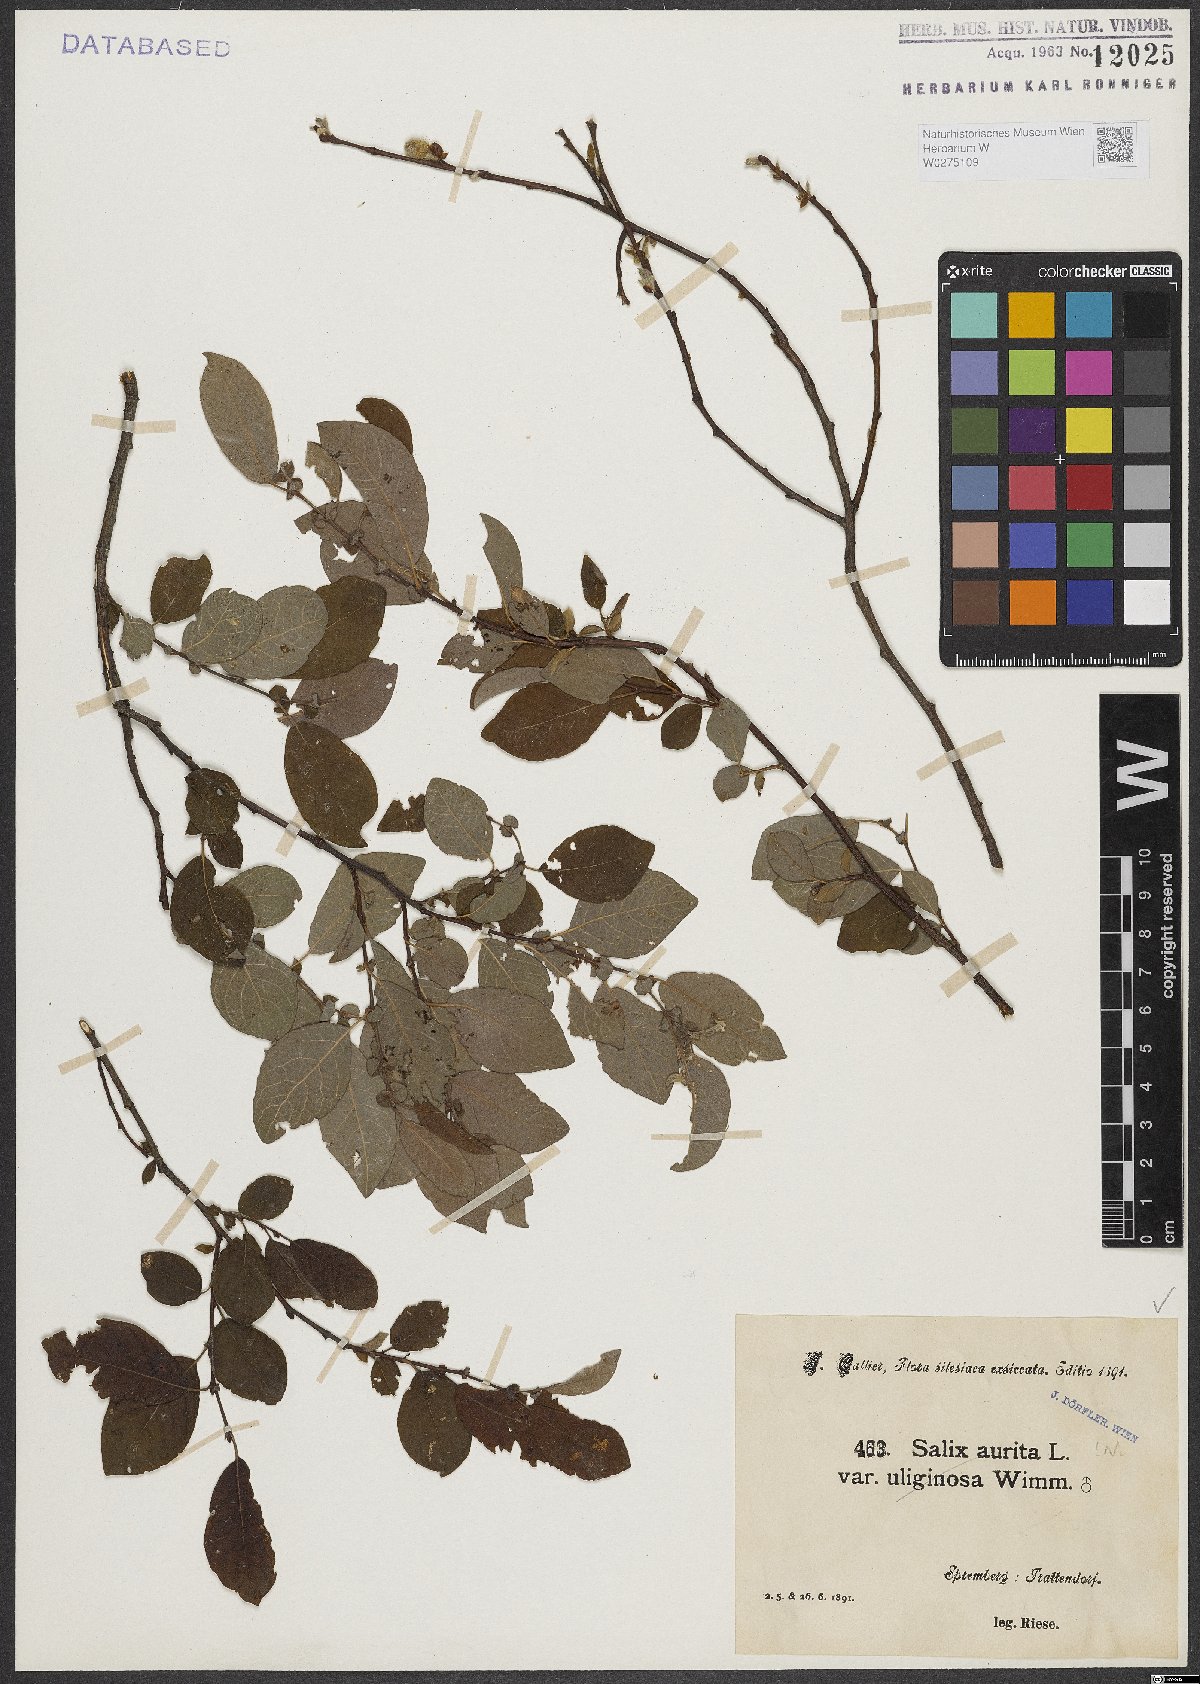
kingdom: Plantae
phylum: Tracheophyta
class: Magnoliopsida
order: Malpighiales
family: Salicaceae
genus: Salix
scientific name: Salix aurita
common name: Eared willow
